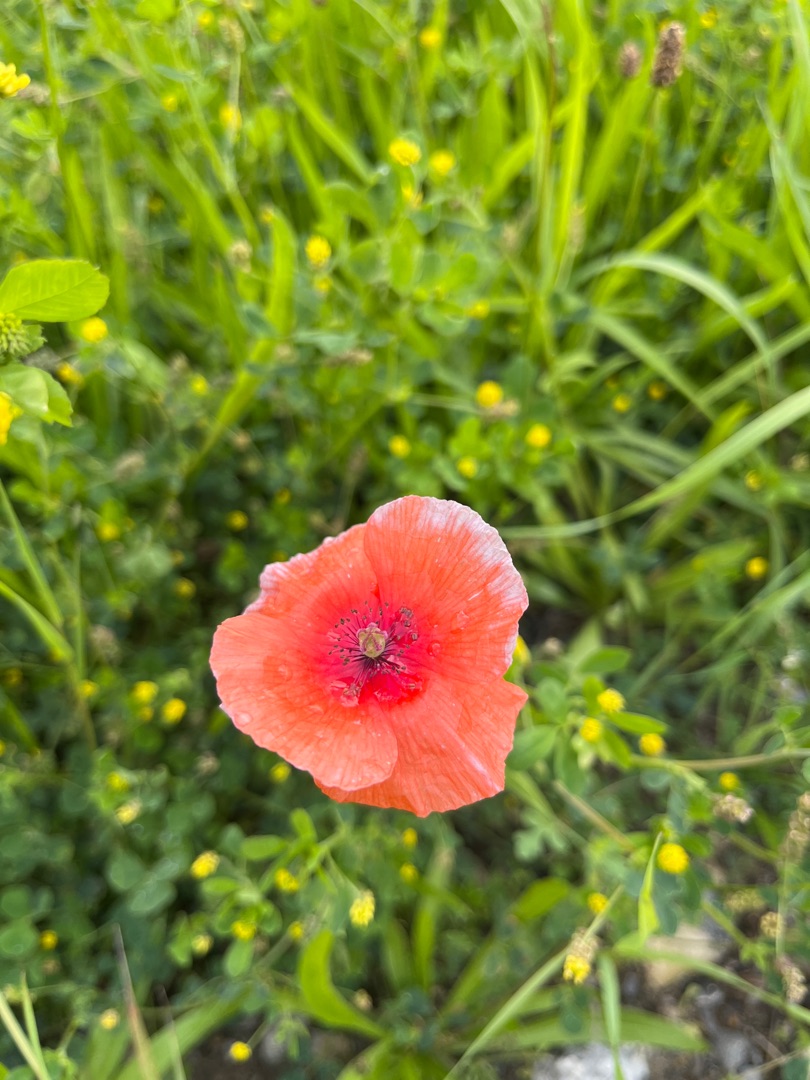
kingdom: Plantae
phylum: Tracheophyta
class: Magnoliopsida
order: Ranunculales
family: Papaveraceae
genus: Papaver
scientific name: Papaver dubium
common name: Gærde-valmue
